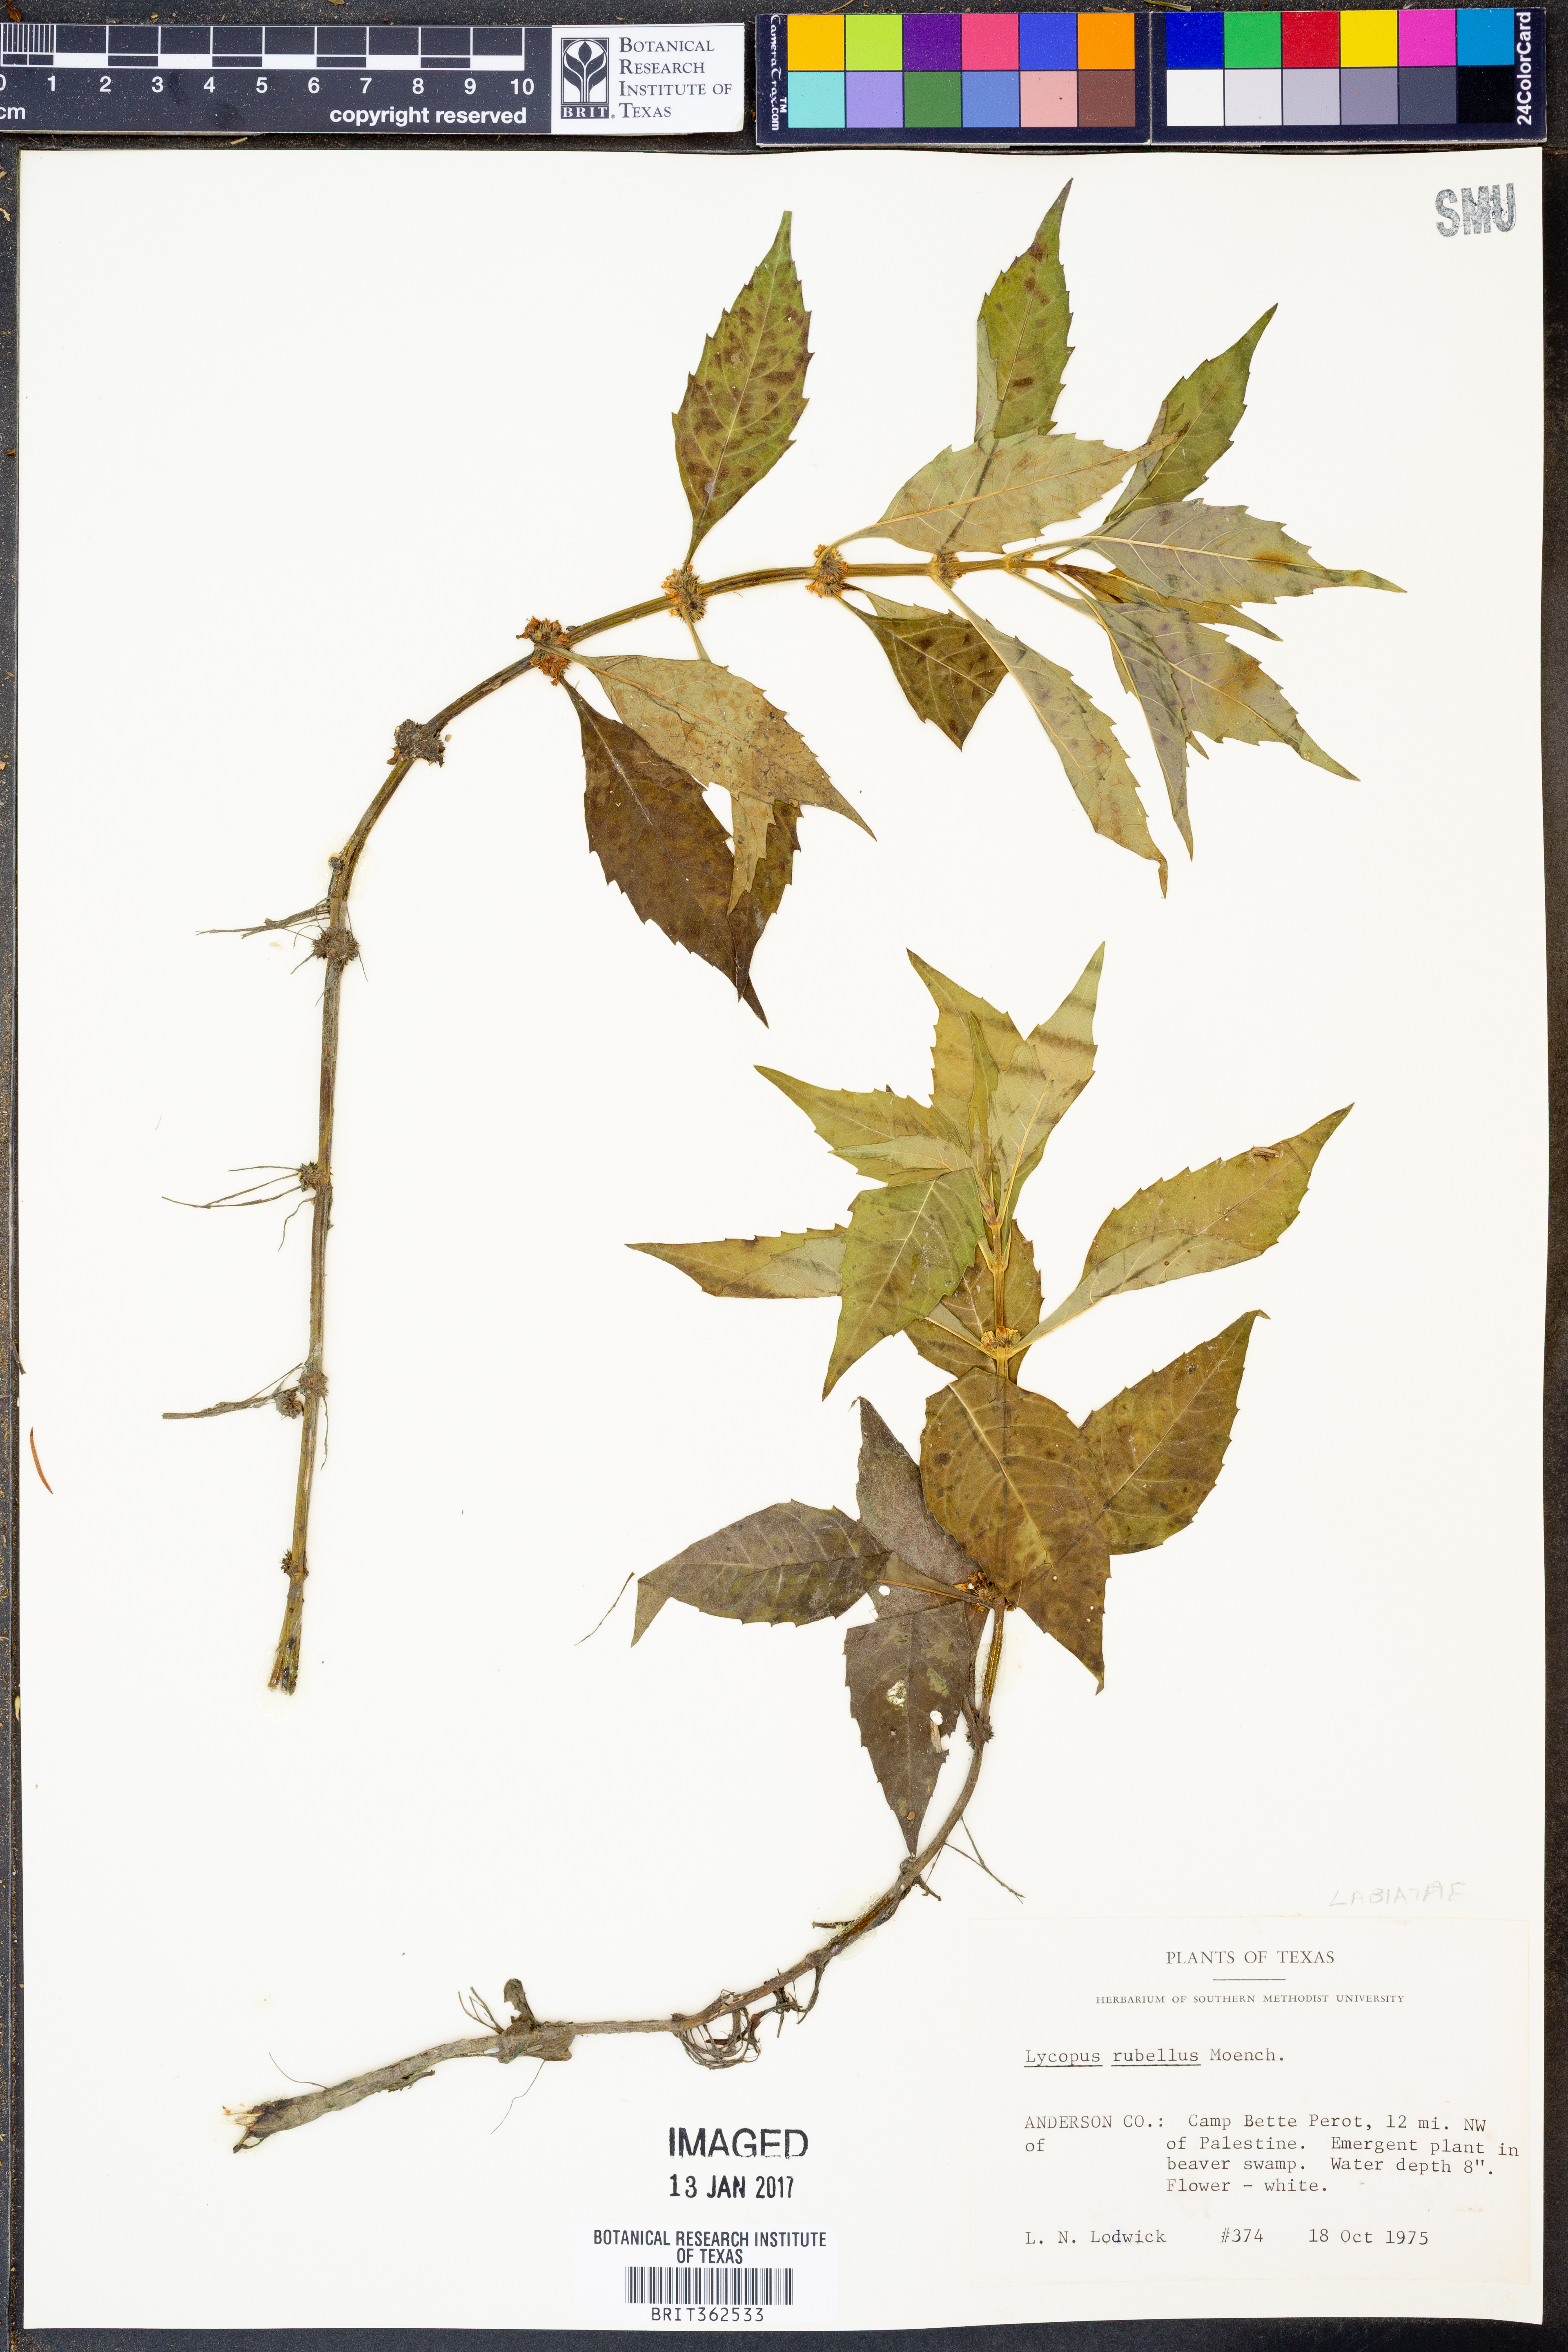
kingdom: Plantae
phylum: Tracheophyta
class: Magnoliopsida
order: Lamiales
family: Lamiaceae
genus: Lycopus
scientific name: Lycopus rubellus
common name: Stalked bugleweed
